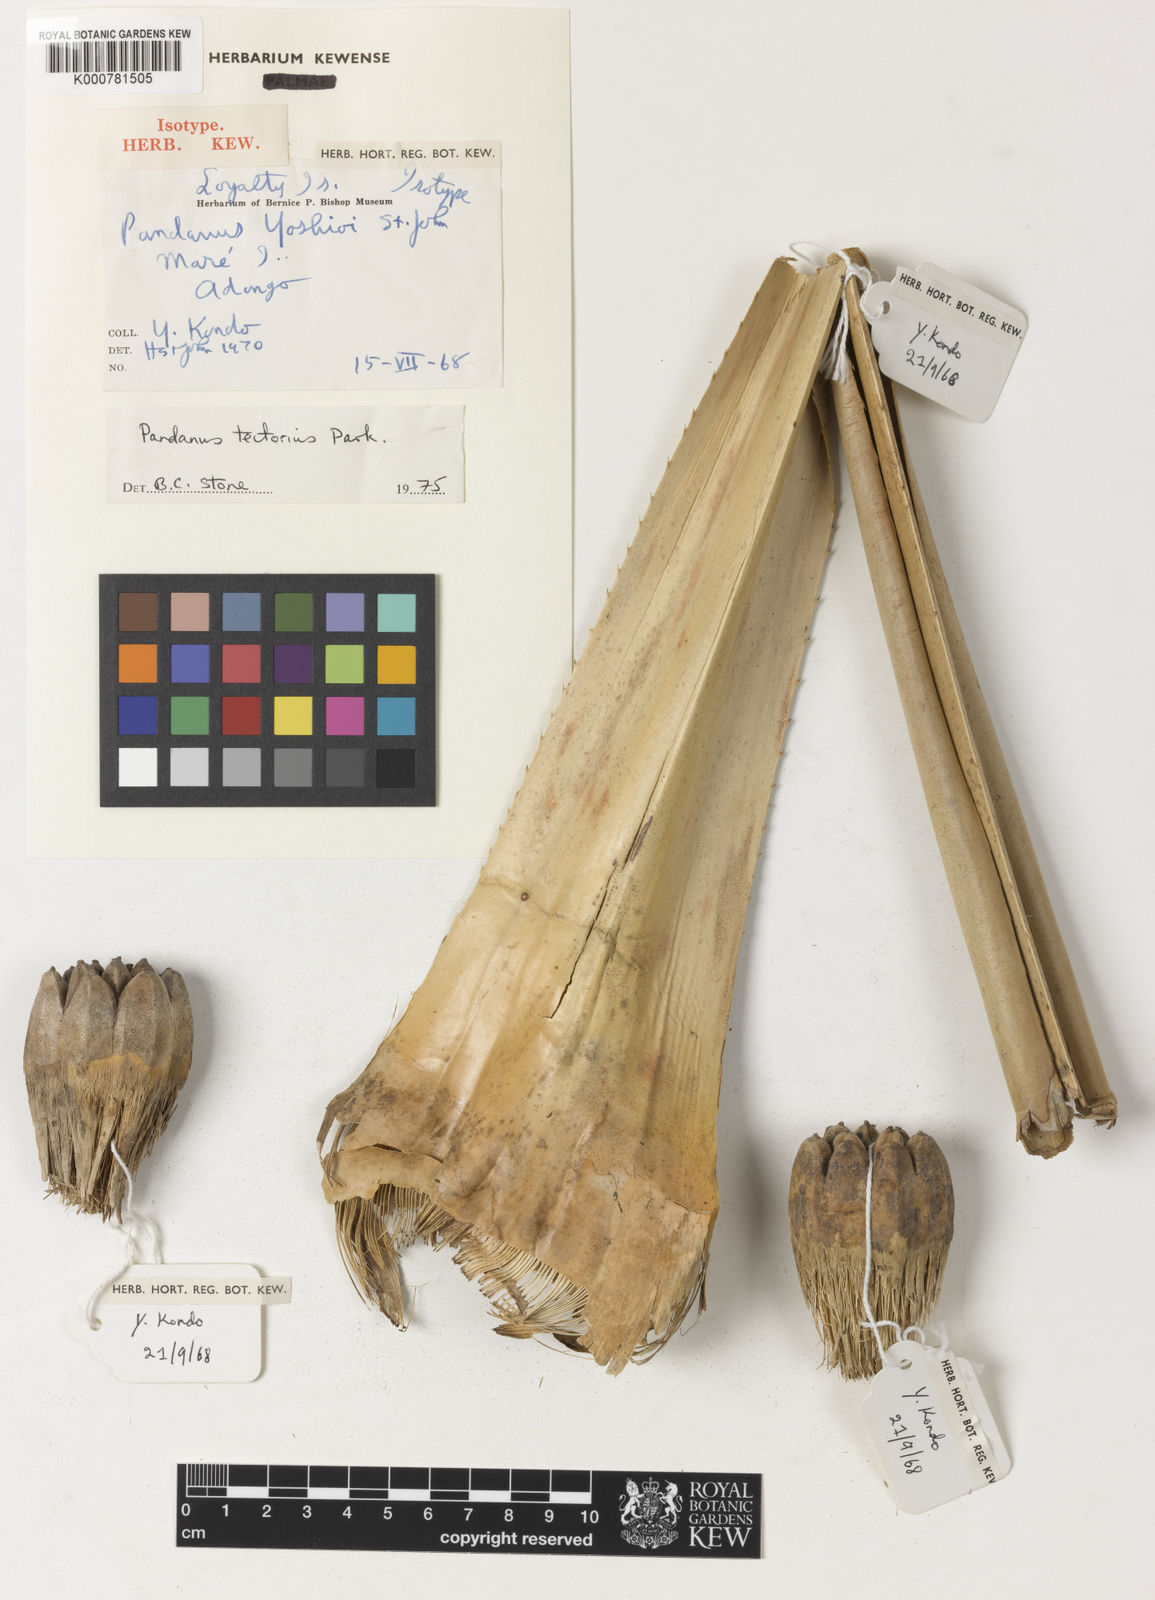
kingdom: Plantae
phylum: Tracheophyta
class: Liliopsida
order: Pandanales
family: Pandanaceae
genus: Pandanus
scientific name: Pandanus
